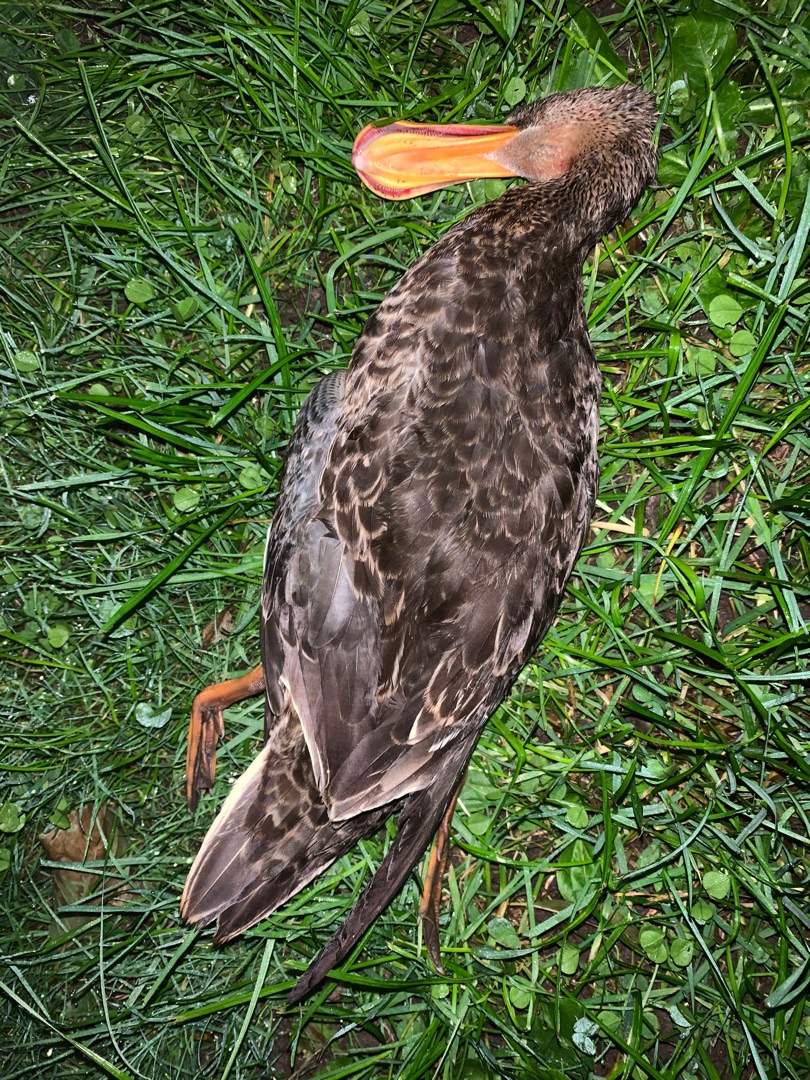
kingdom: Animalia
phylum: Chordata
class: Aves
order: Anseriformes
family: Anatidae
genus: Spatula
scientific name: Spatula clypeata
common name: Skeand
